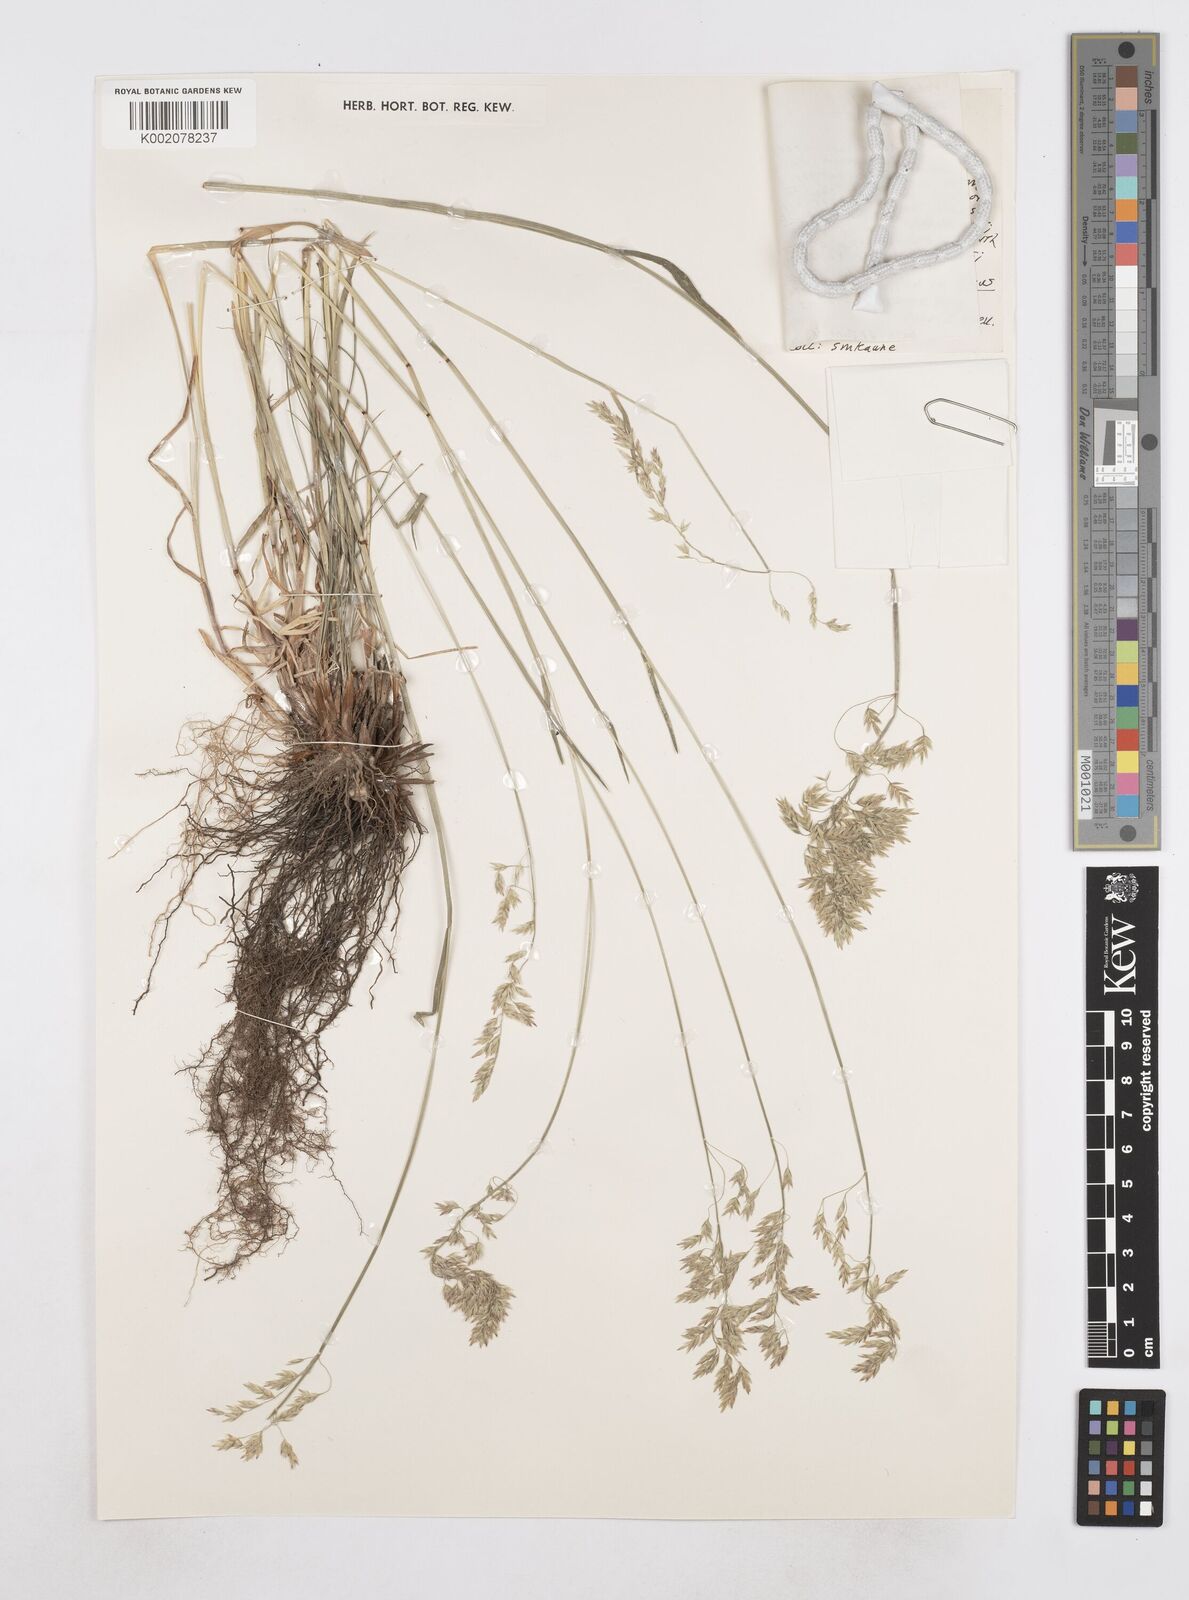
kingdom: Plantae
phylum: Tracheophyta
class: Liliopsida
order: Poales
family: Poaceae
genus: Poa
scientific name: Poa
